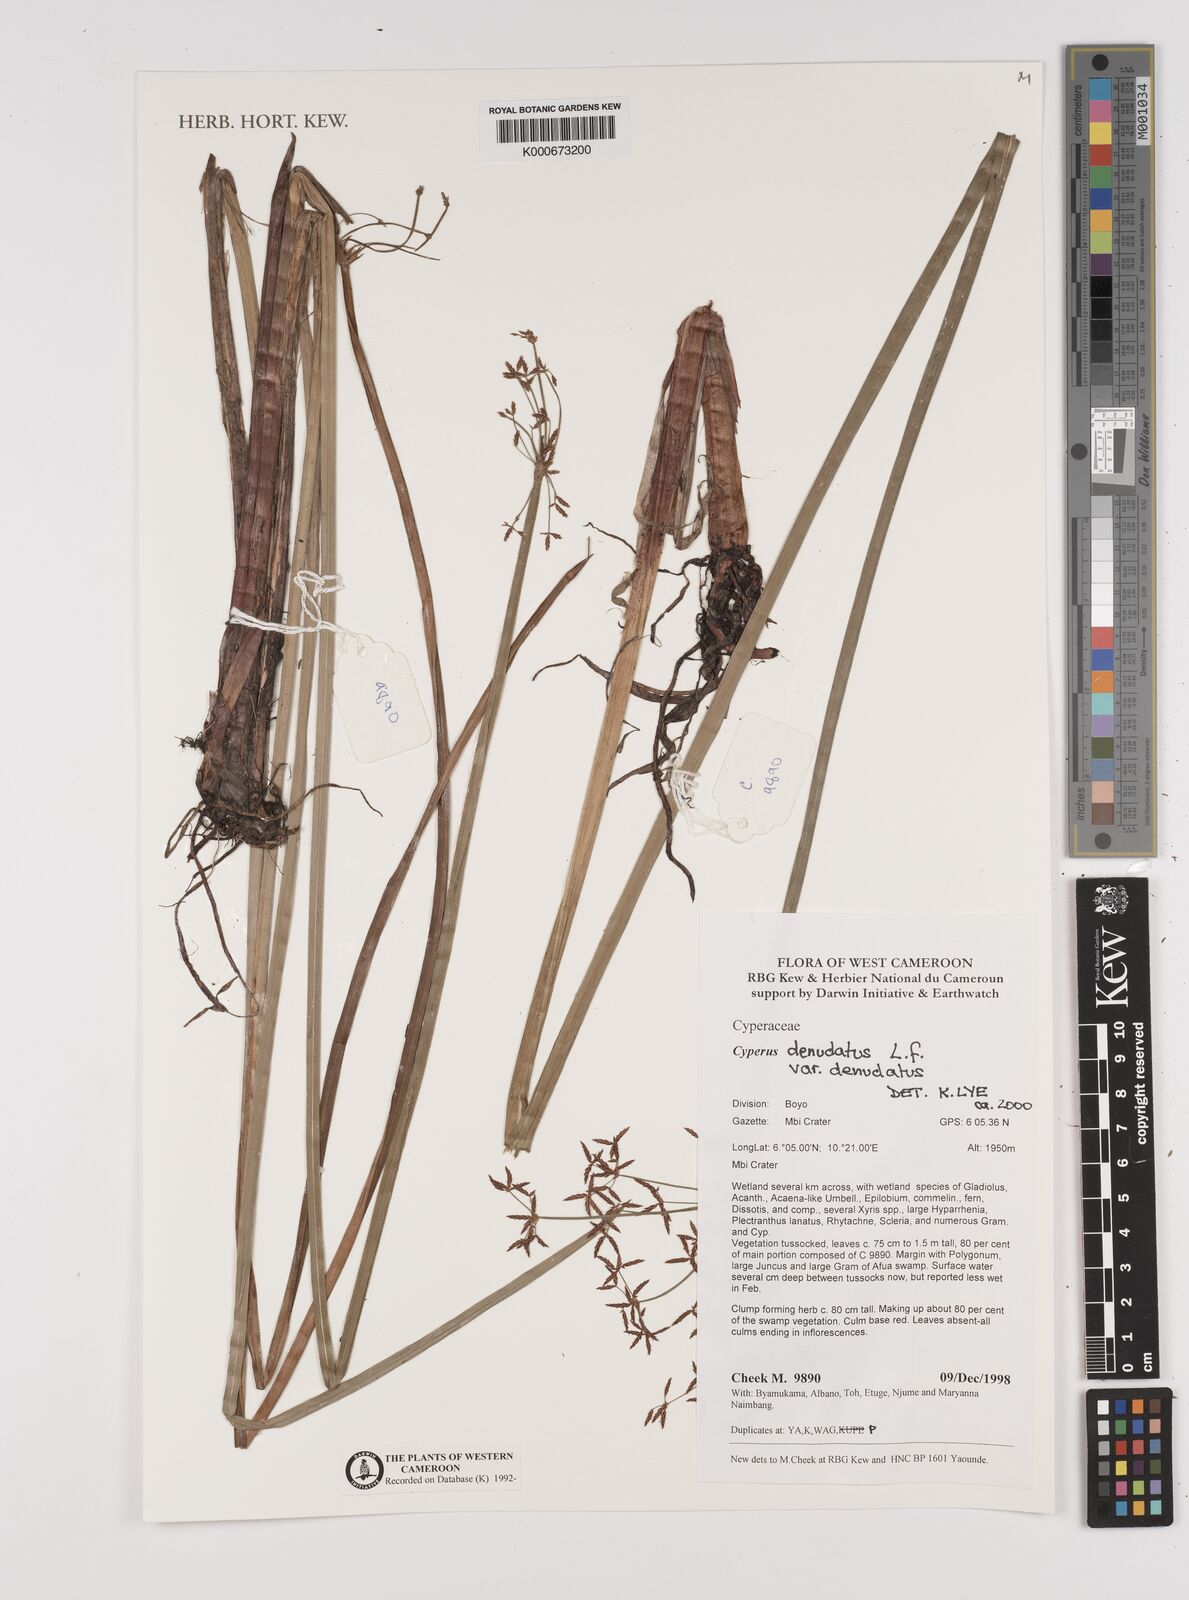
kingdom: Plantae
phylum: Tracheophyta
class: Liliopsida
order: Poales
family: Cyperaceae
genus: Cyperus
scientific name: Cyperus denudatus
